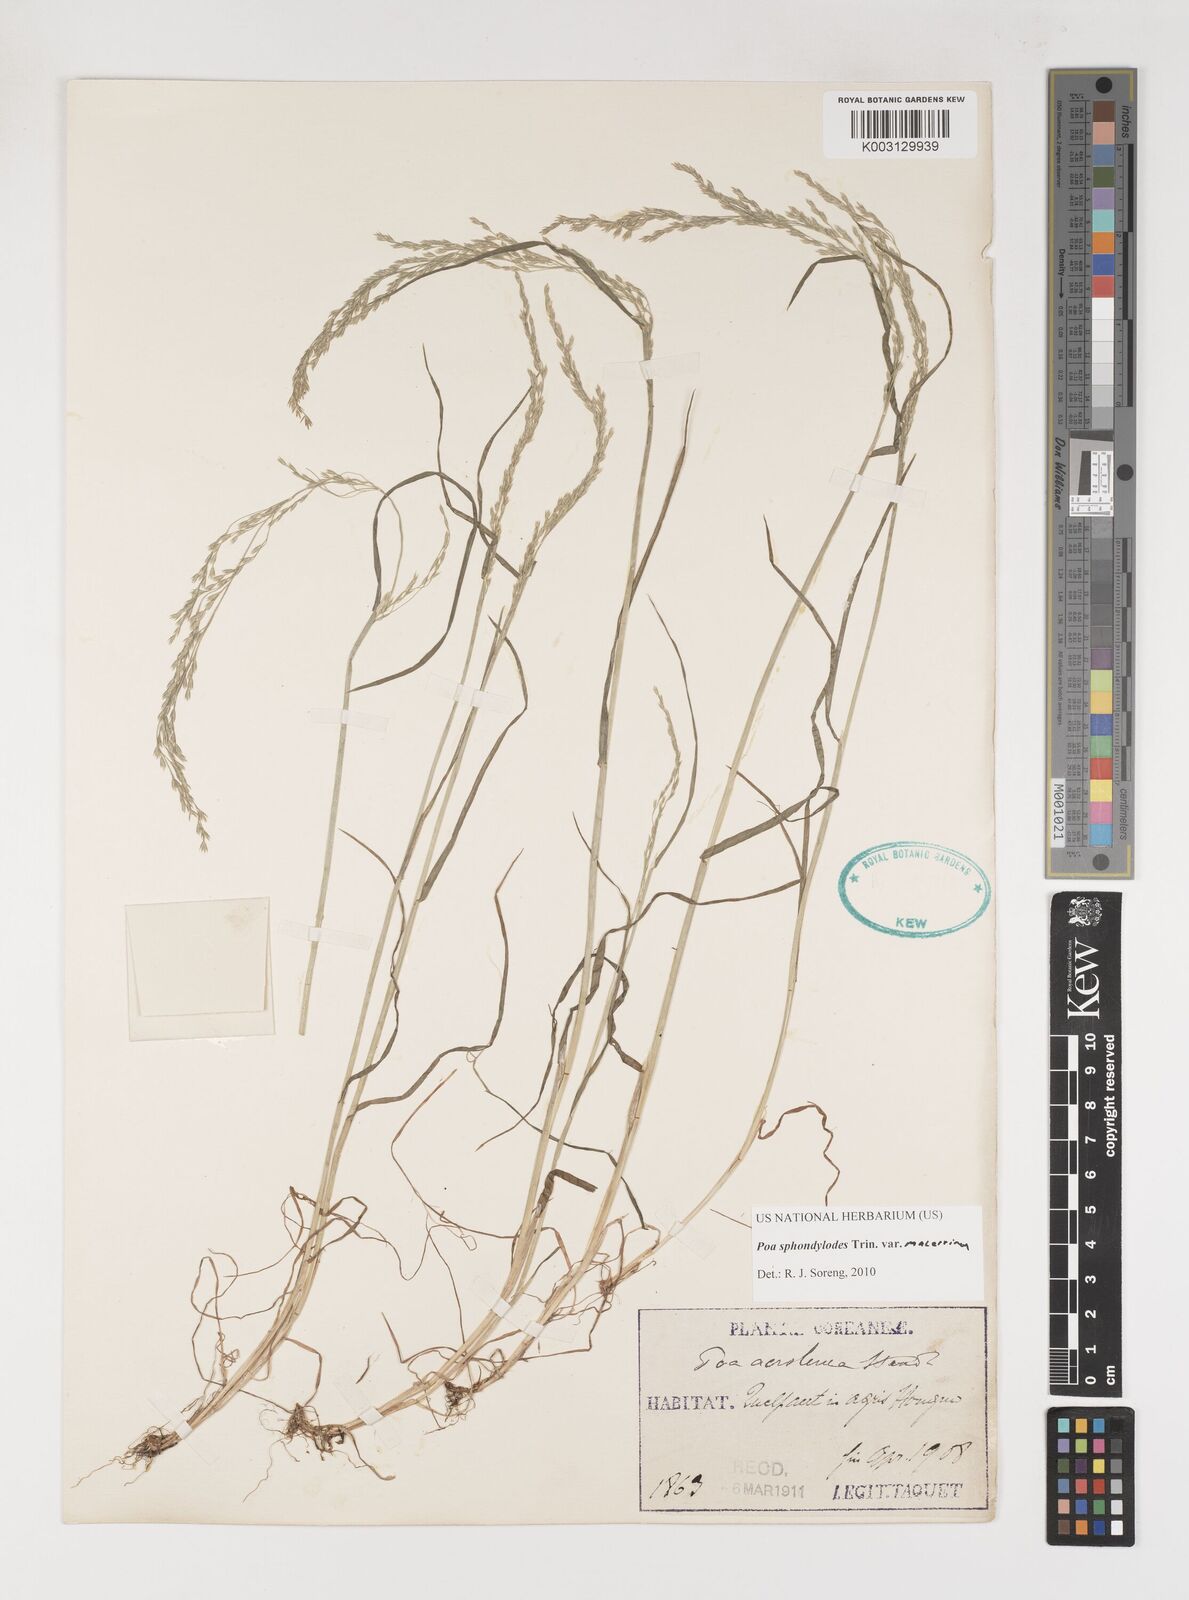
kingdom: Plantae
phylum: Tracheophyta
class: Liliopsida
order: Poales
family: Poaceae
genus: Poa
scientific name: Poa sphondylodes
